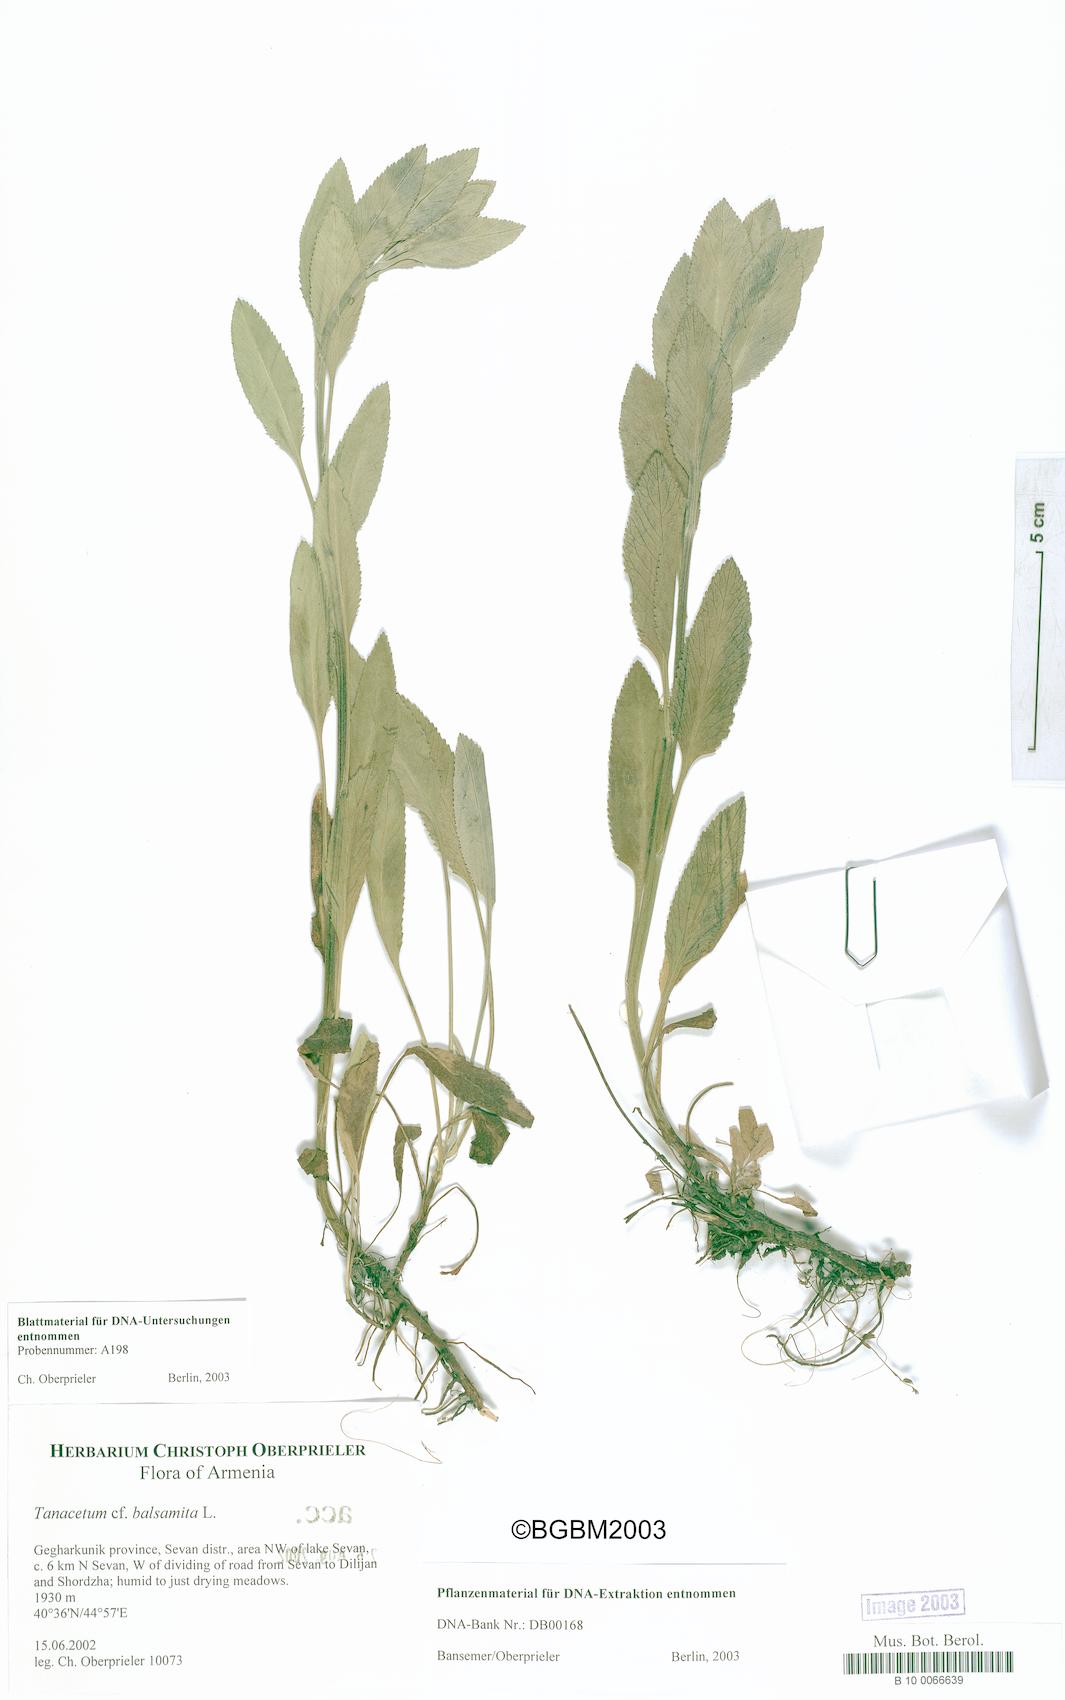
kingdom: Plantae
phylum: Tracheophyta
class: Magnoliopsida
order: Asterales
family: Asteraceae
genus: Tanacetum
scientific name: Tanacetum balsamita
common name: Costmary
